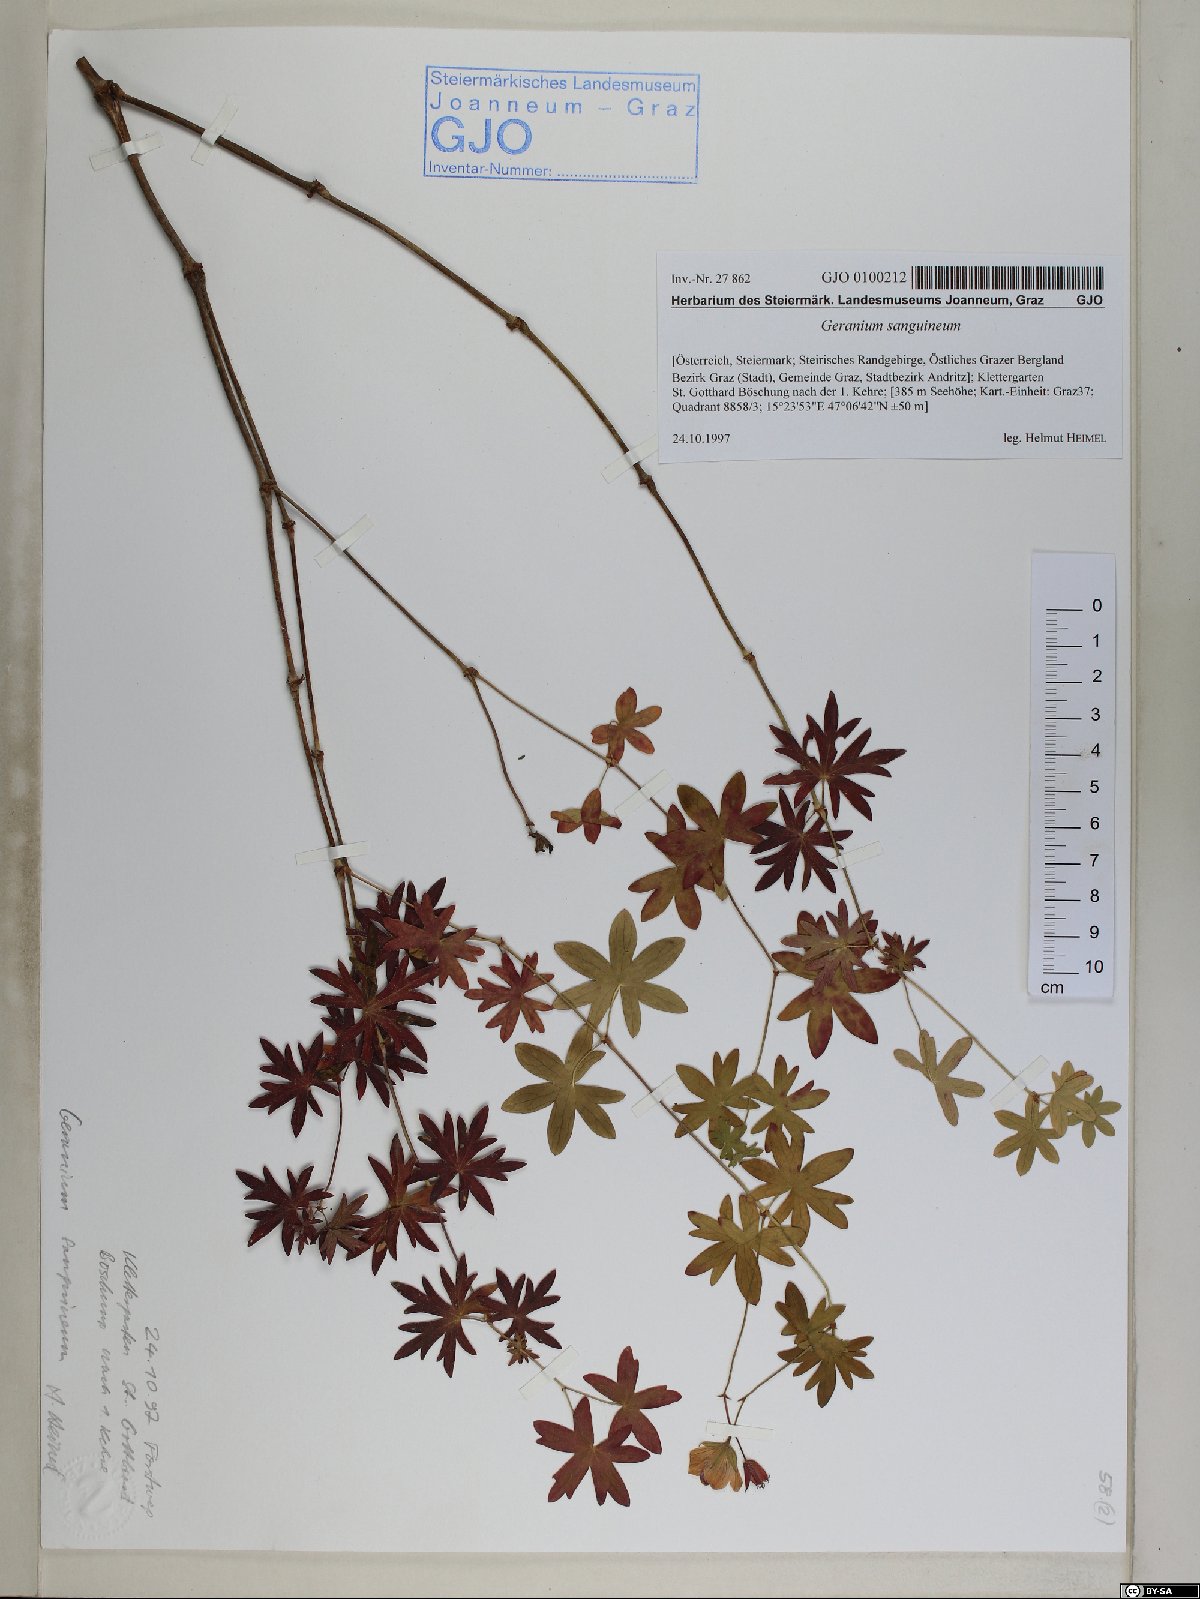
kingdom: Plantae
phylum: Tracheophyta
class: Magnoliopsida
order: Geraniales
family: Geraniaceae
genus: Geranium
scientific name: Geranium sanguineum
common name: Bloody crane's-bill
